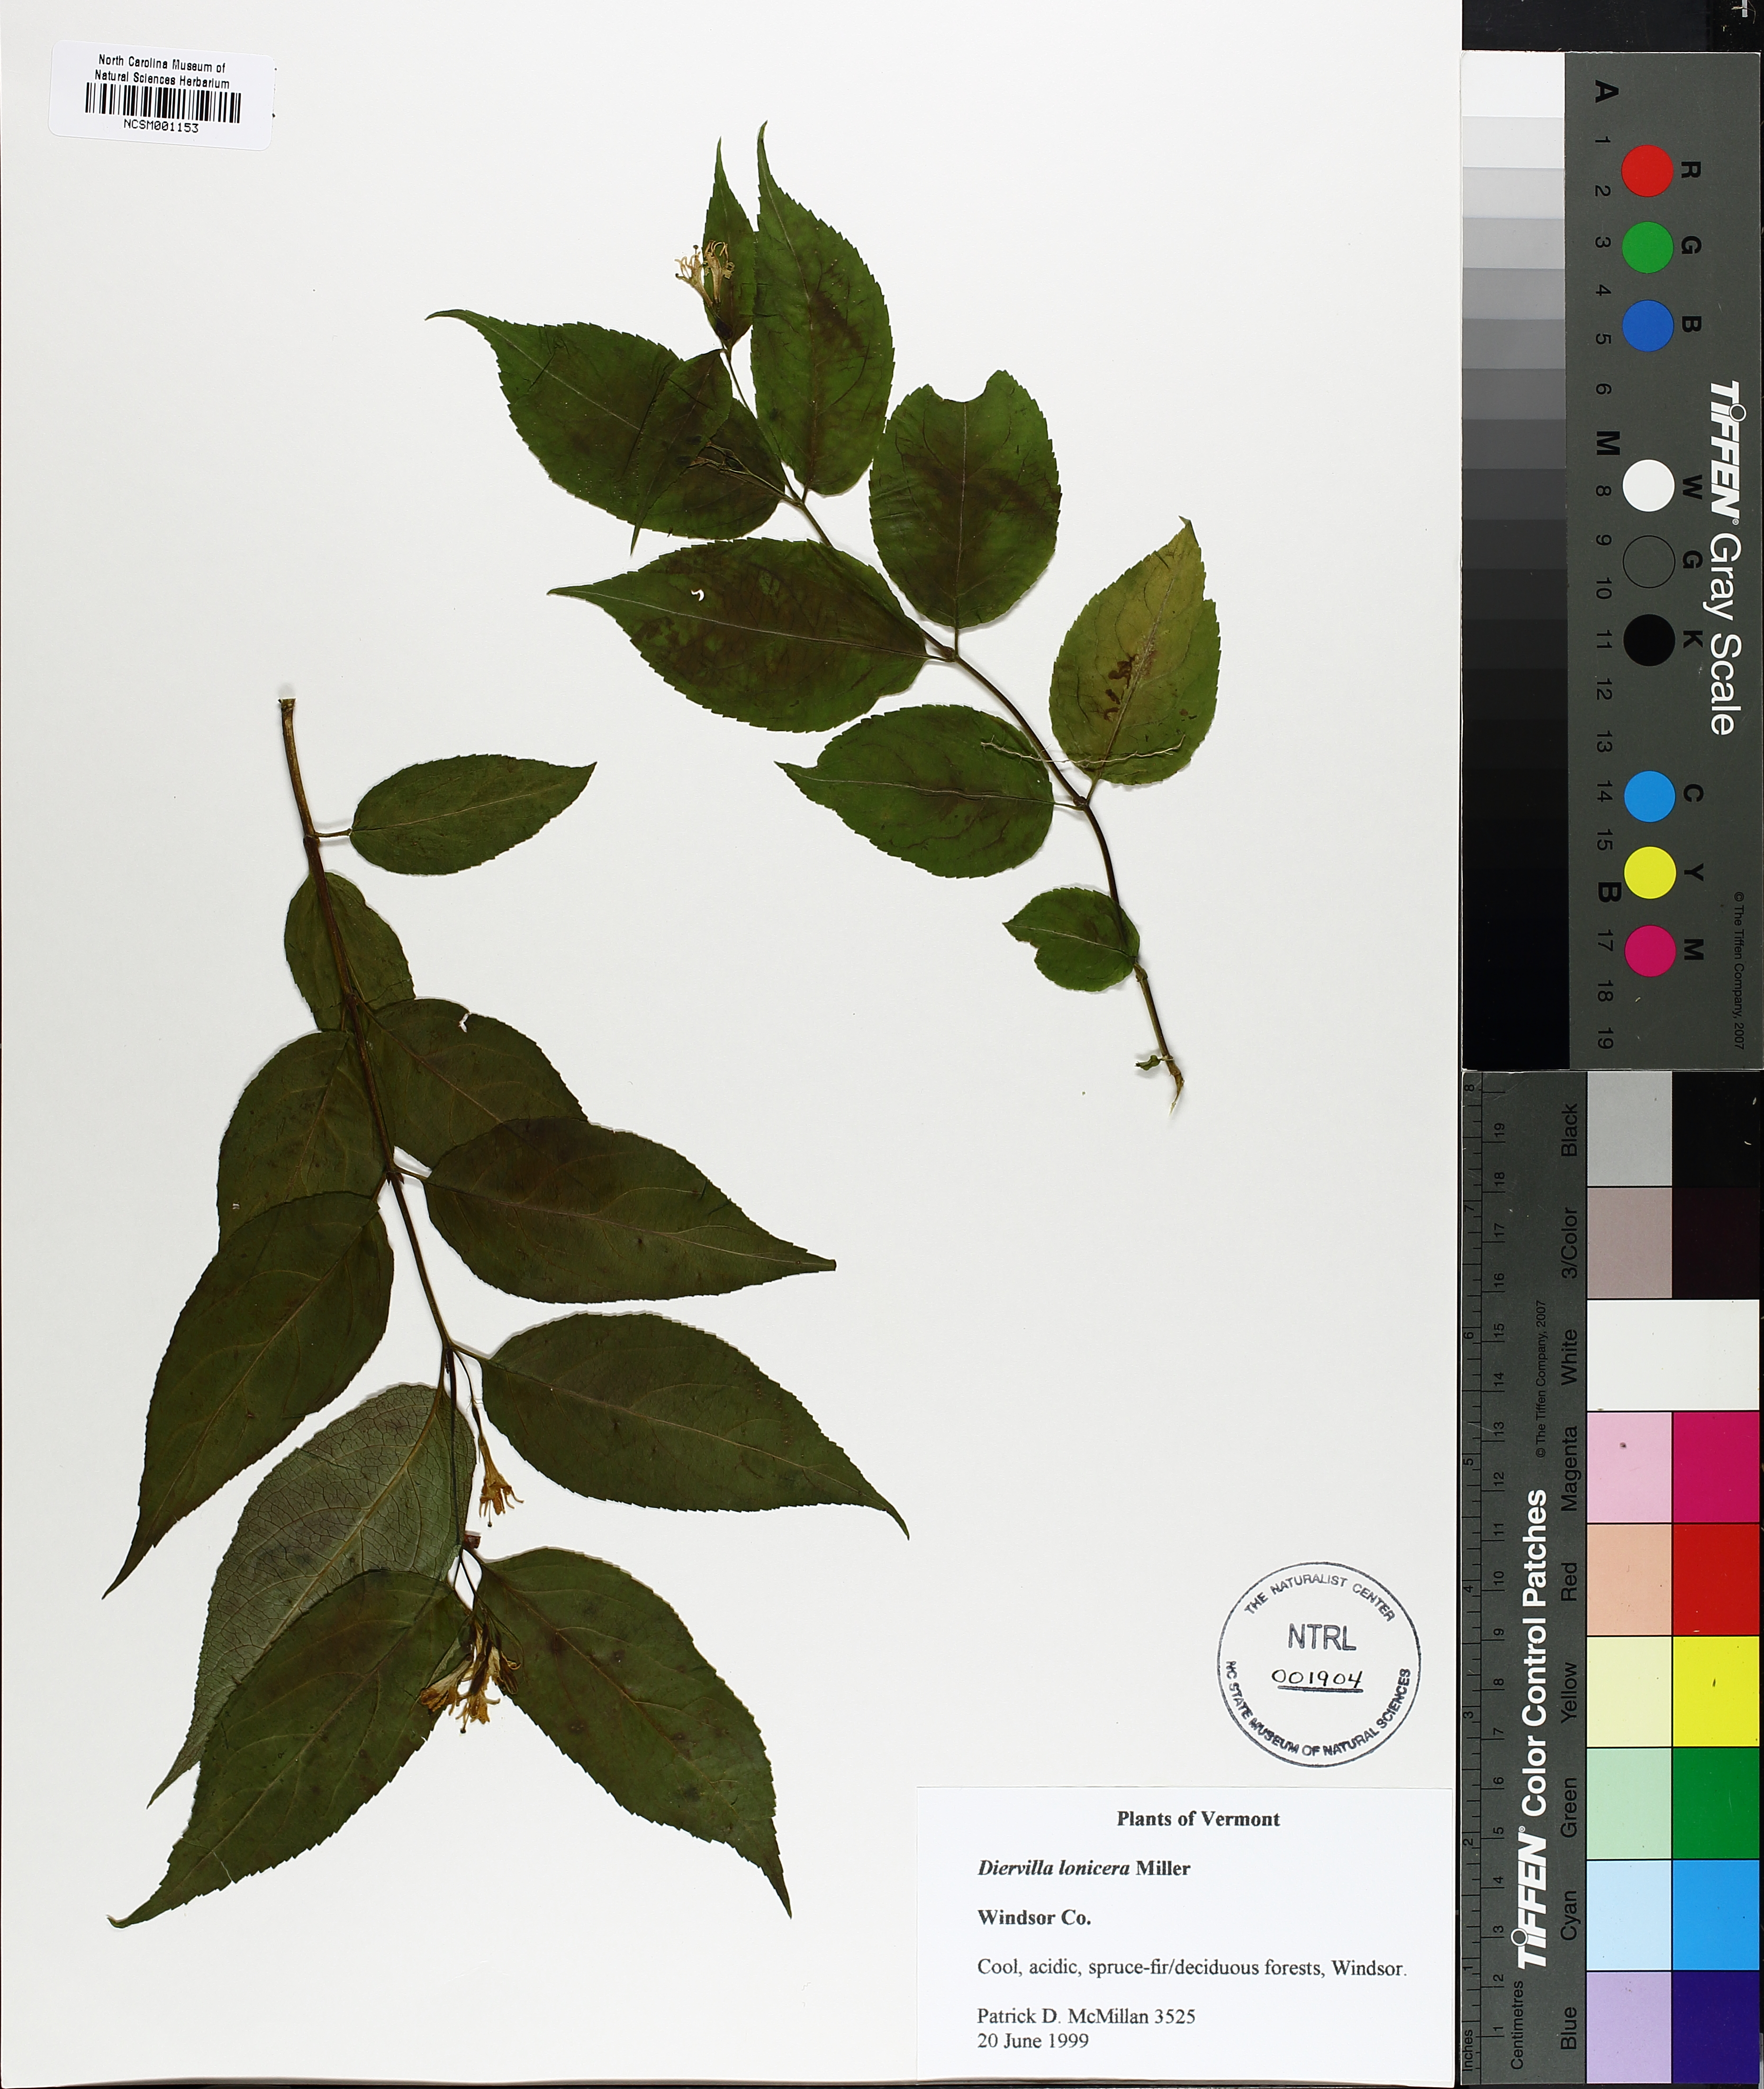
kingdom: Plantae
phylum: Tracheophyta
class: Magnoliopsida
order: Dipsacales
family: Caprifoliaceae
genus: Diervilla
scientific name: Diervilla lonicera
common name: Bush-honeysuckle
